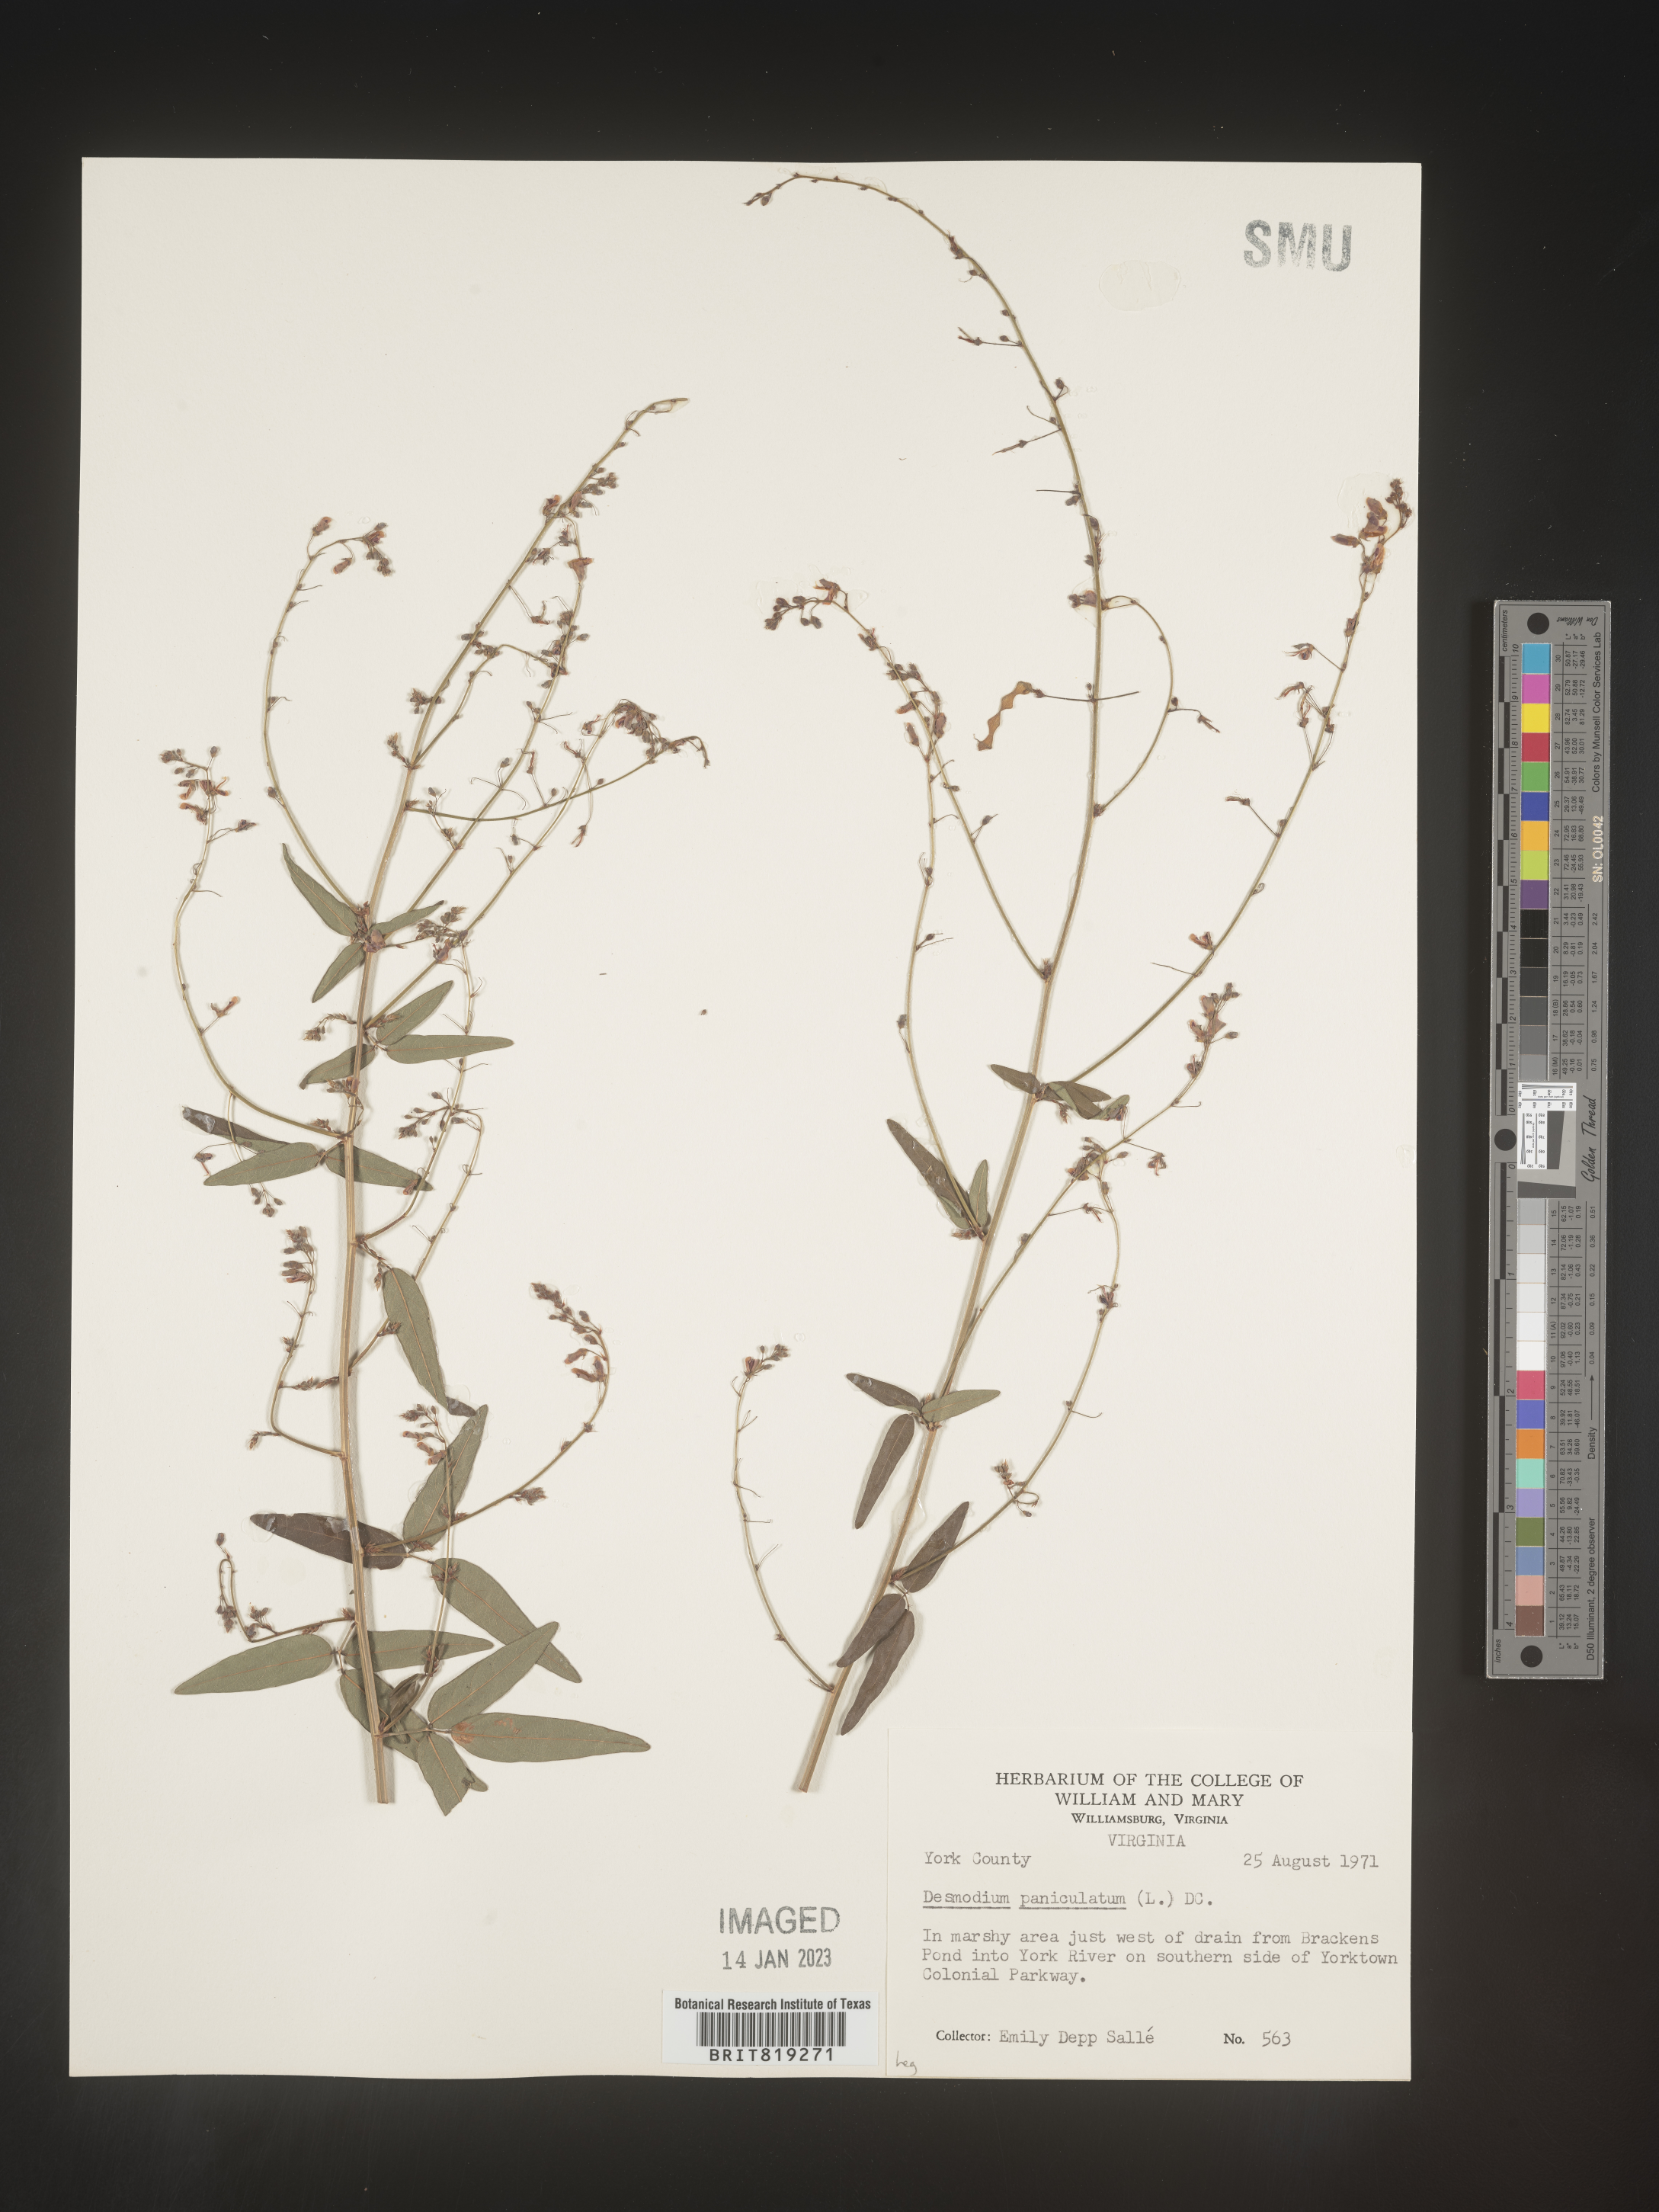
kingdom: Plantae
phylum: Tracheophyta
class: Magnoliopsida
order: Fabales
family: Fabaceae
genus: Desmodium
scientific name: Desmodium paniculatum
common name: Panicled tick-clover
